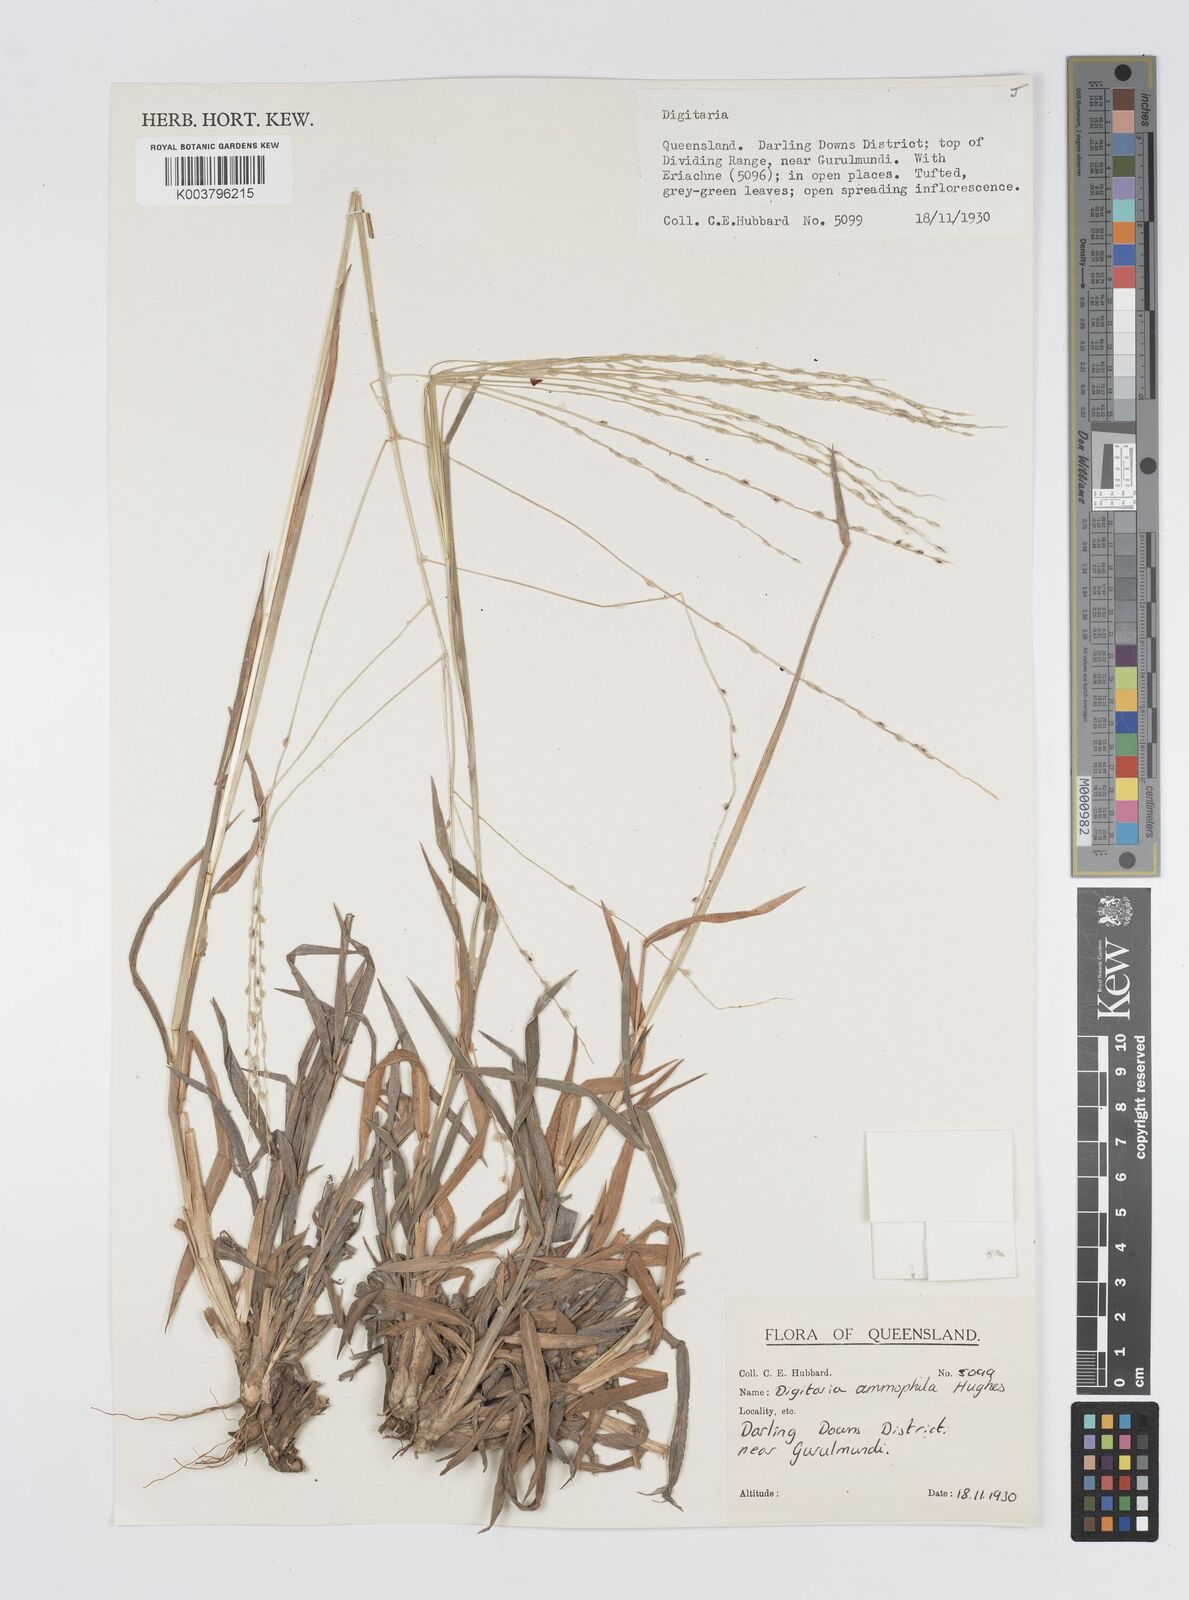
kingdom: Plantae
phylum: Tracheophyta
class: Liliopsida
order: Poales
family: Poaceae
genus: Digitaria
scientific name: Digitaria ammophila
